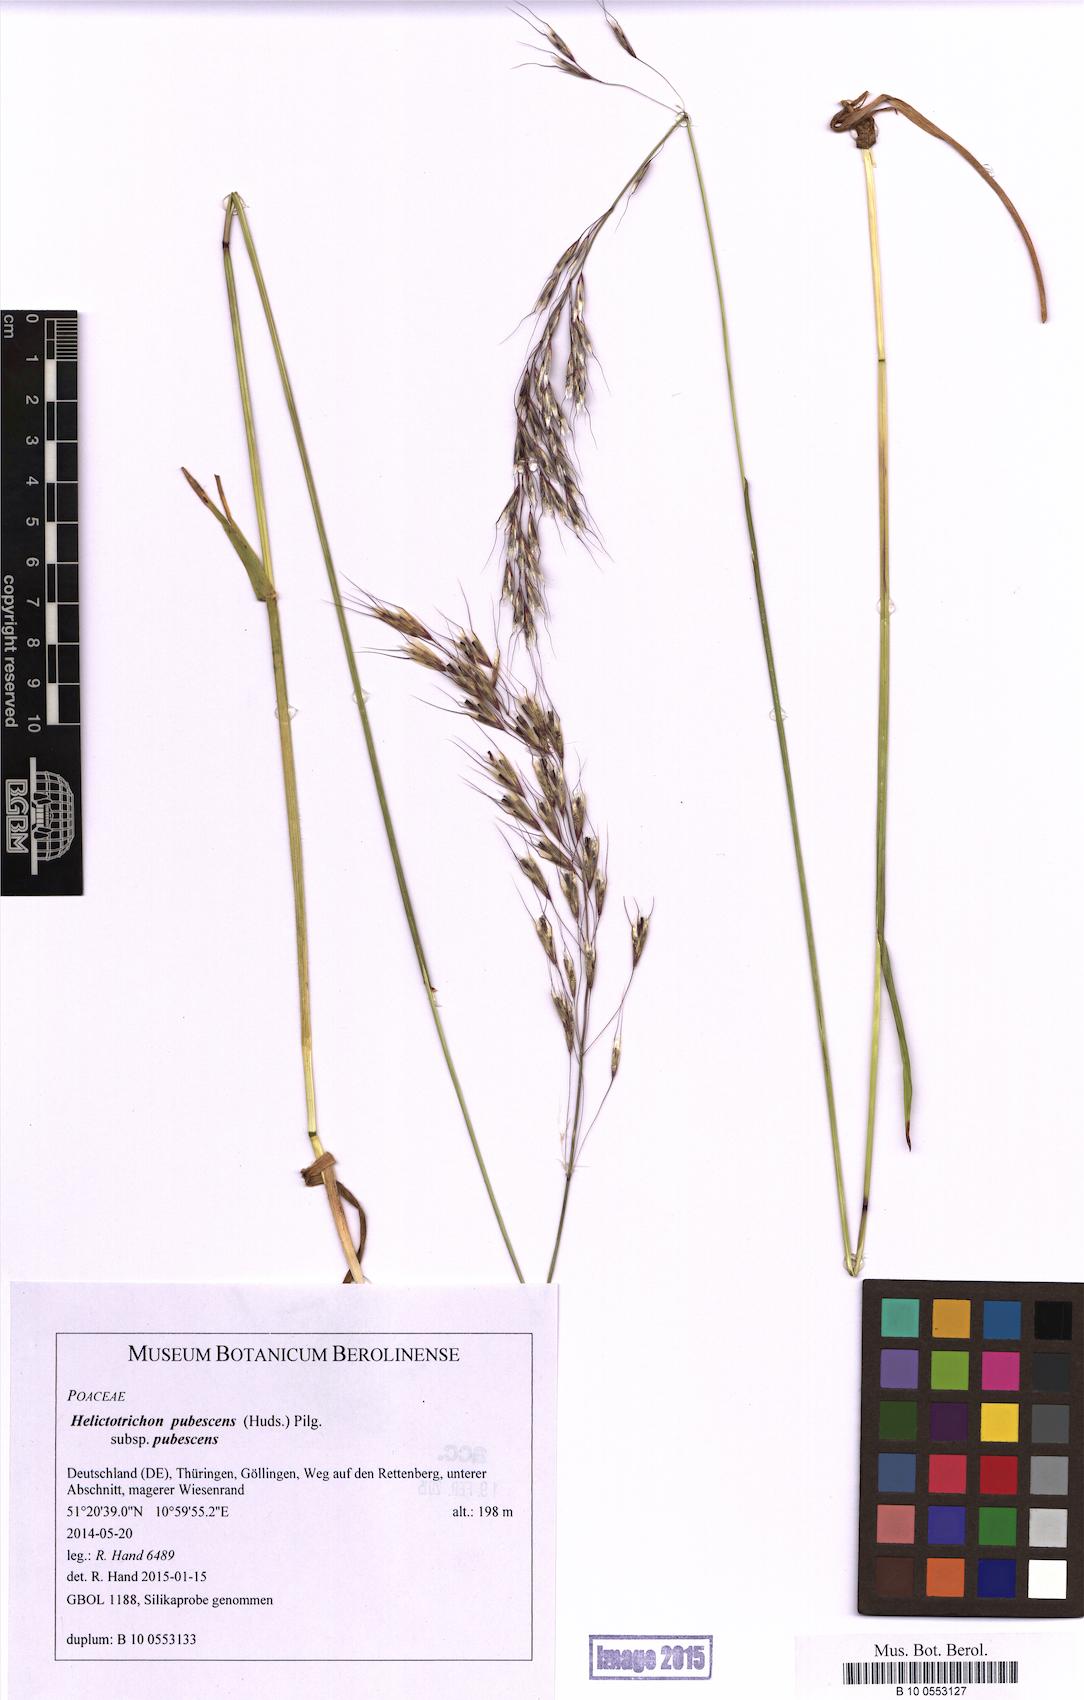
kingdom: Plantae
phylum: Tracheophyta
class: Liliopsida
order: Poales
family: Poaceae
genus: Avenula
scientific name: Avenula pubescens
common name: Downy alpine oatgrass
